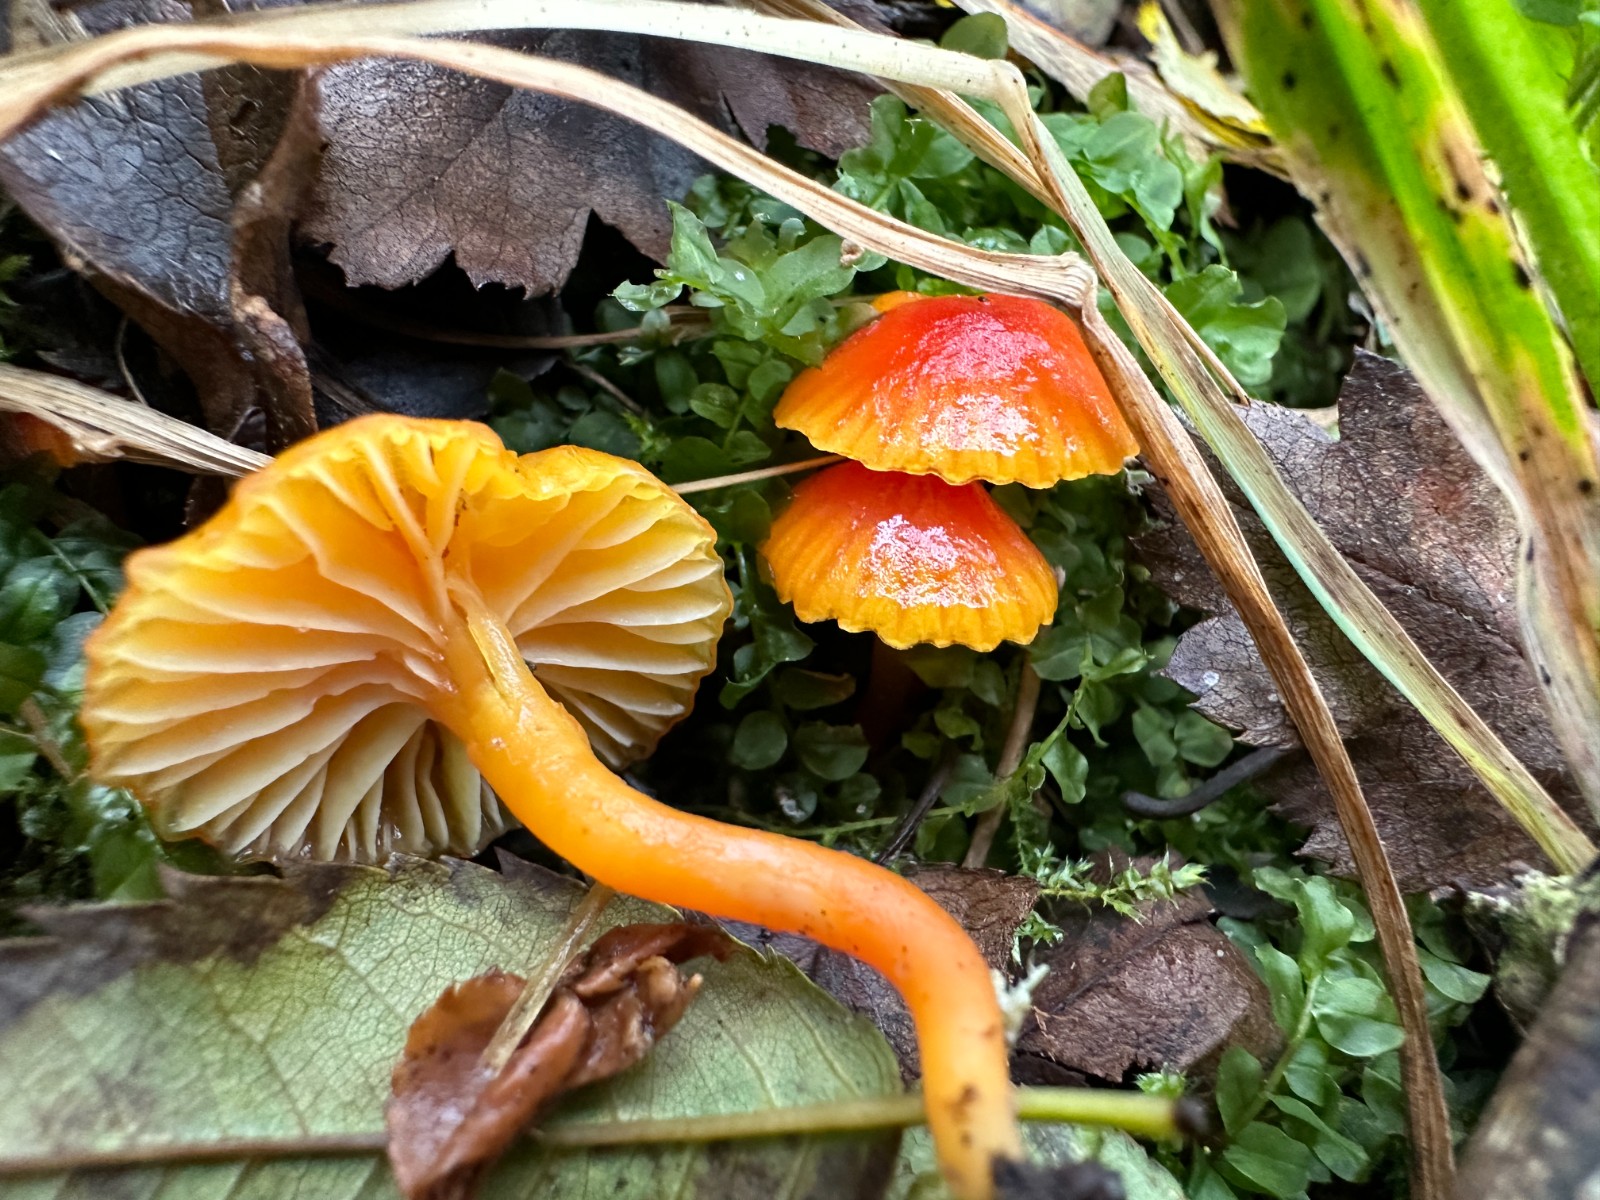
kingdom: Fungi
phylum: Basidiomycota
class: Agaricomycetes
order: Agaricales
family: Hygrophoraceae
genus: Hygrocybe
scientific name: Hygrocybe insipida
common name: liden vokshat
